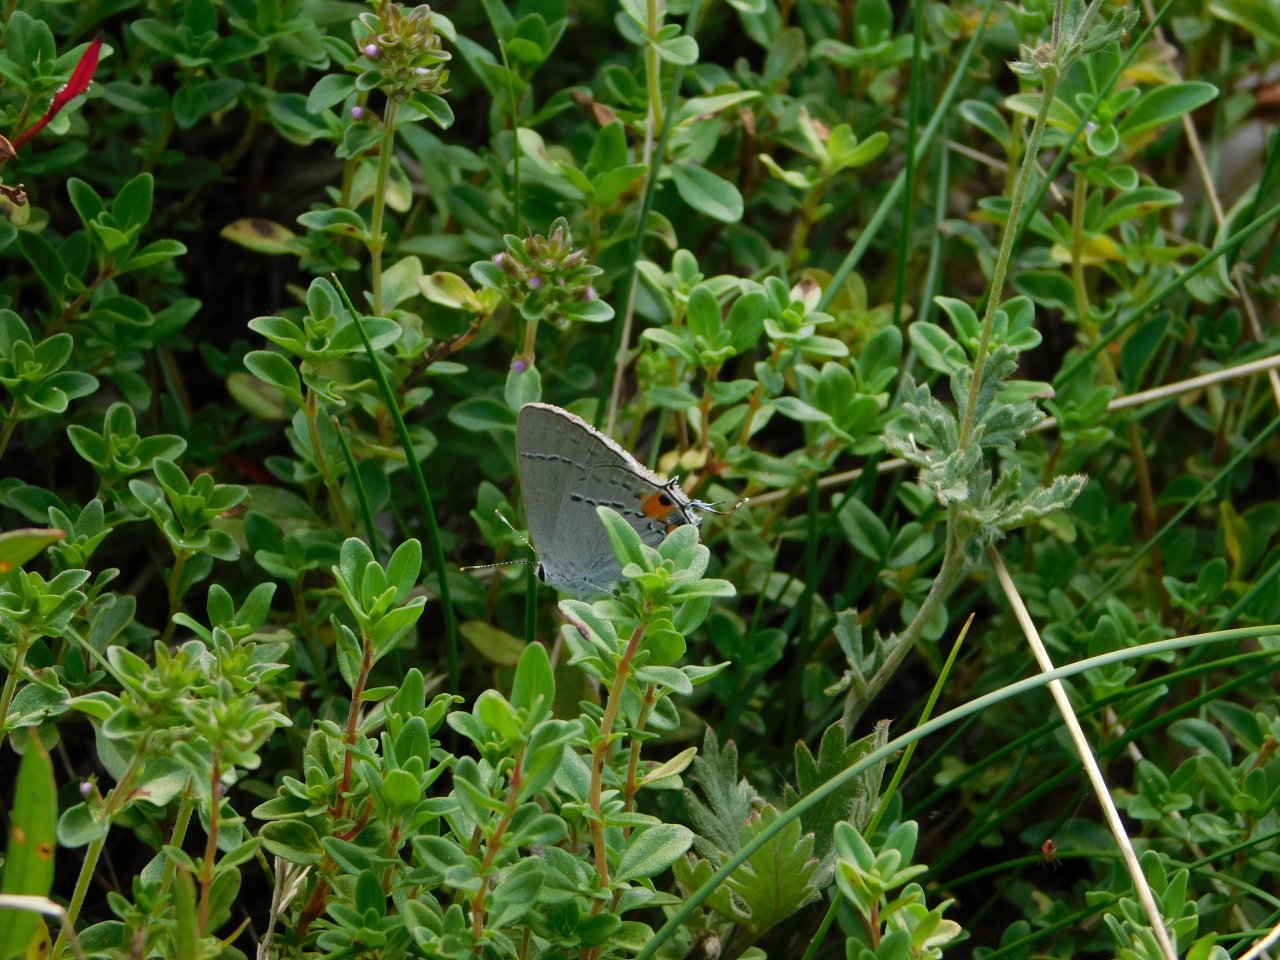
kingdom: Animalia
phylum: Arthropoda
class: Insecta
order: Lepidoptera
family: Lycaenidae
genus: Strymon
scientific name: Strymon melinus
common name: Gray Hairstreak
